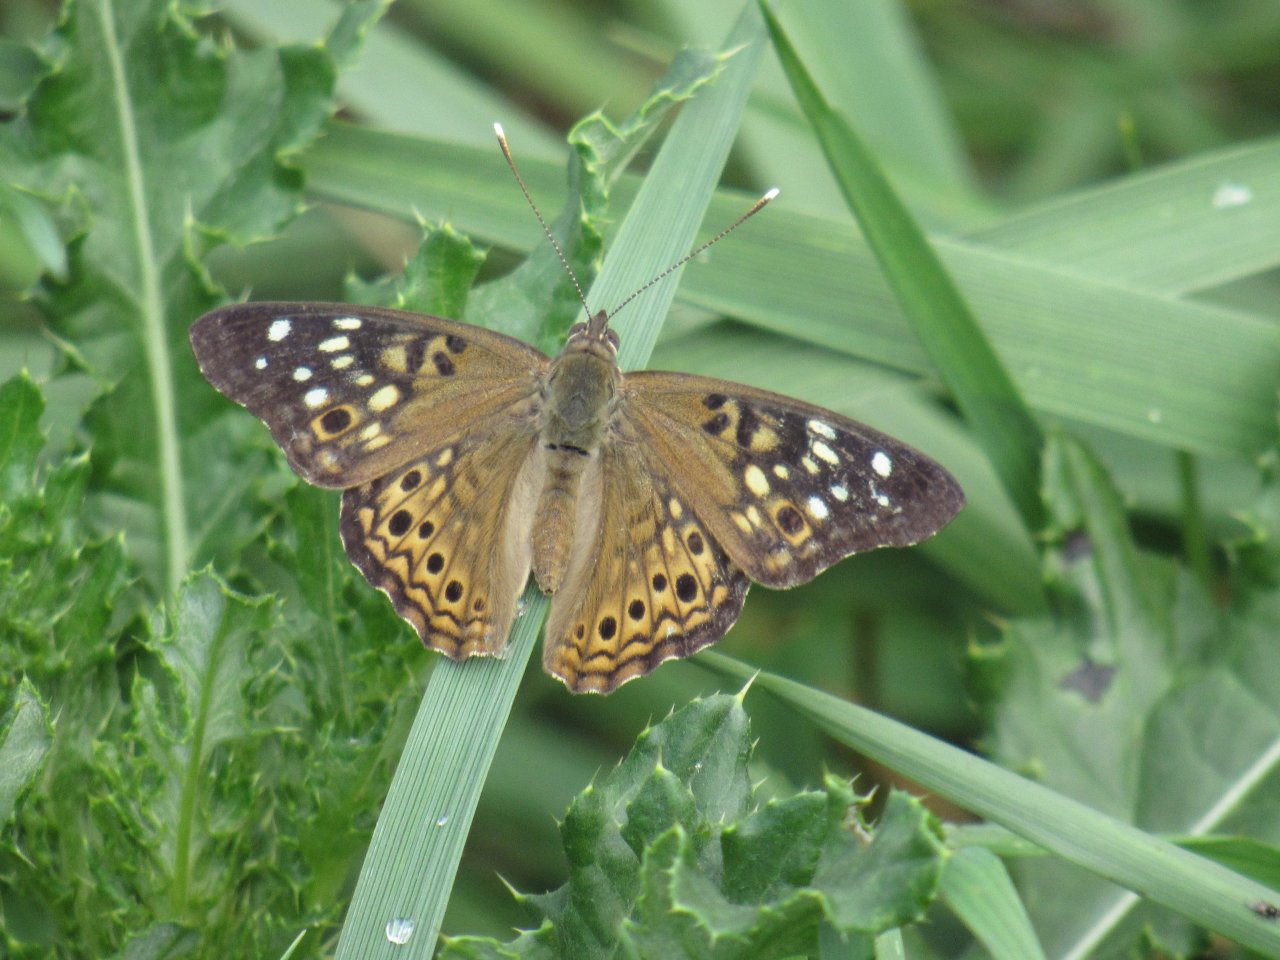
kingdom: Animalia
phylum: Arthropoda
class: Insecta
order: Lepidoptera
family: Nymphalidae
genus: Asterocampa
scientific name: Asterocampa celtis
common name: Hackberry Emperor
